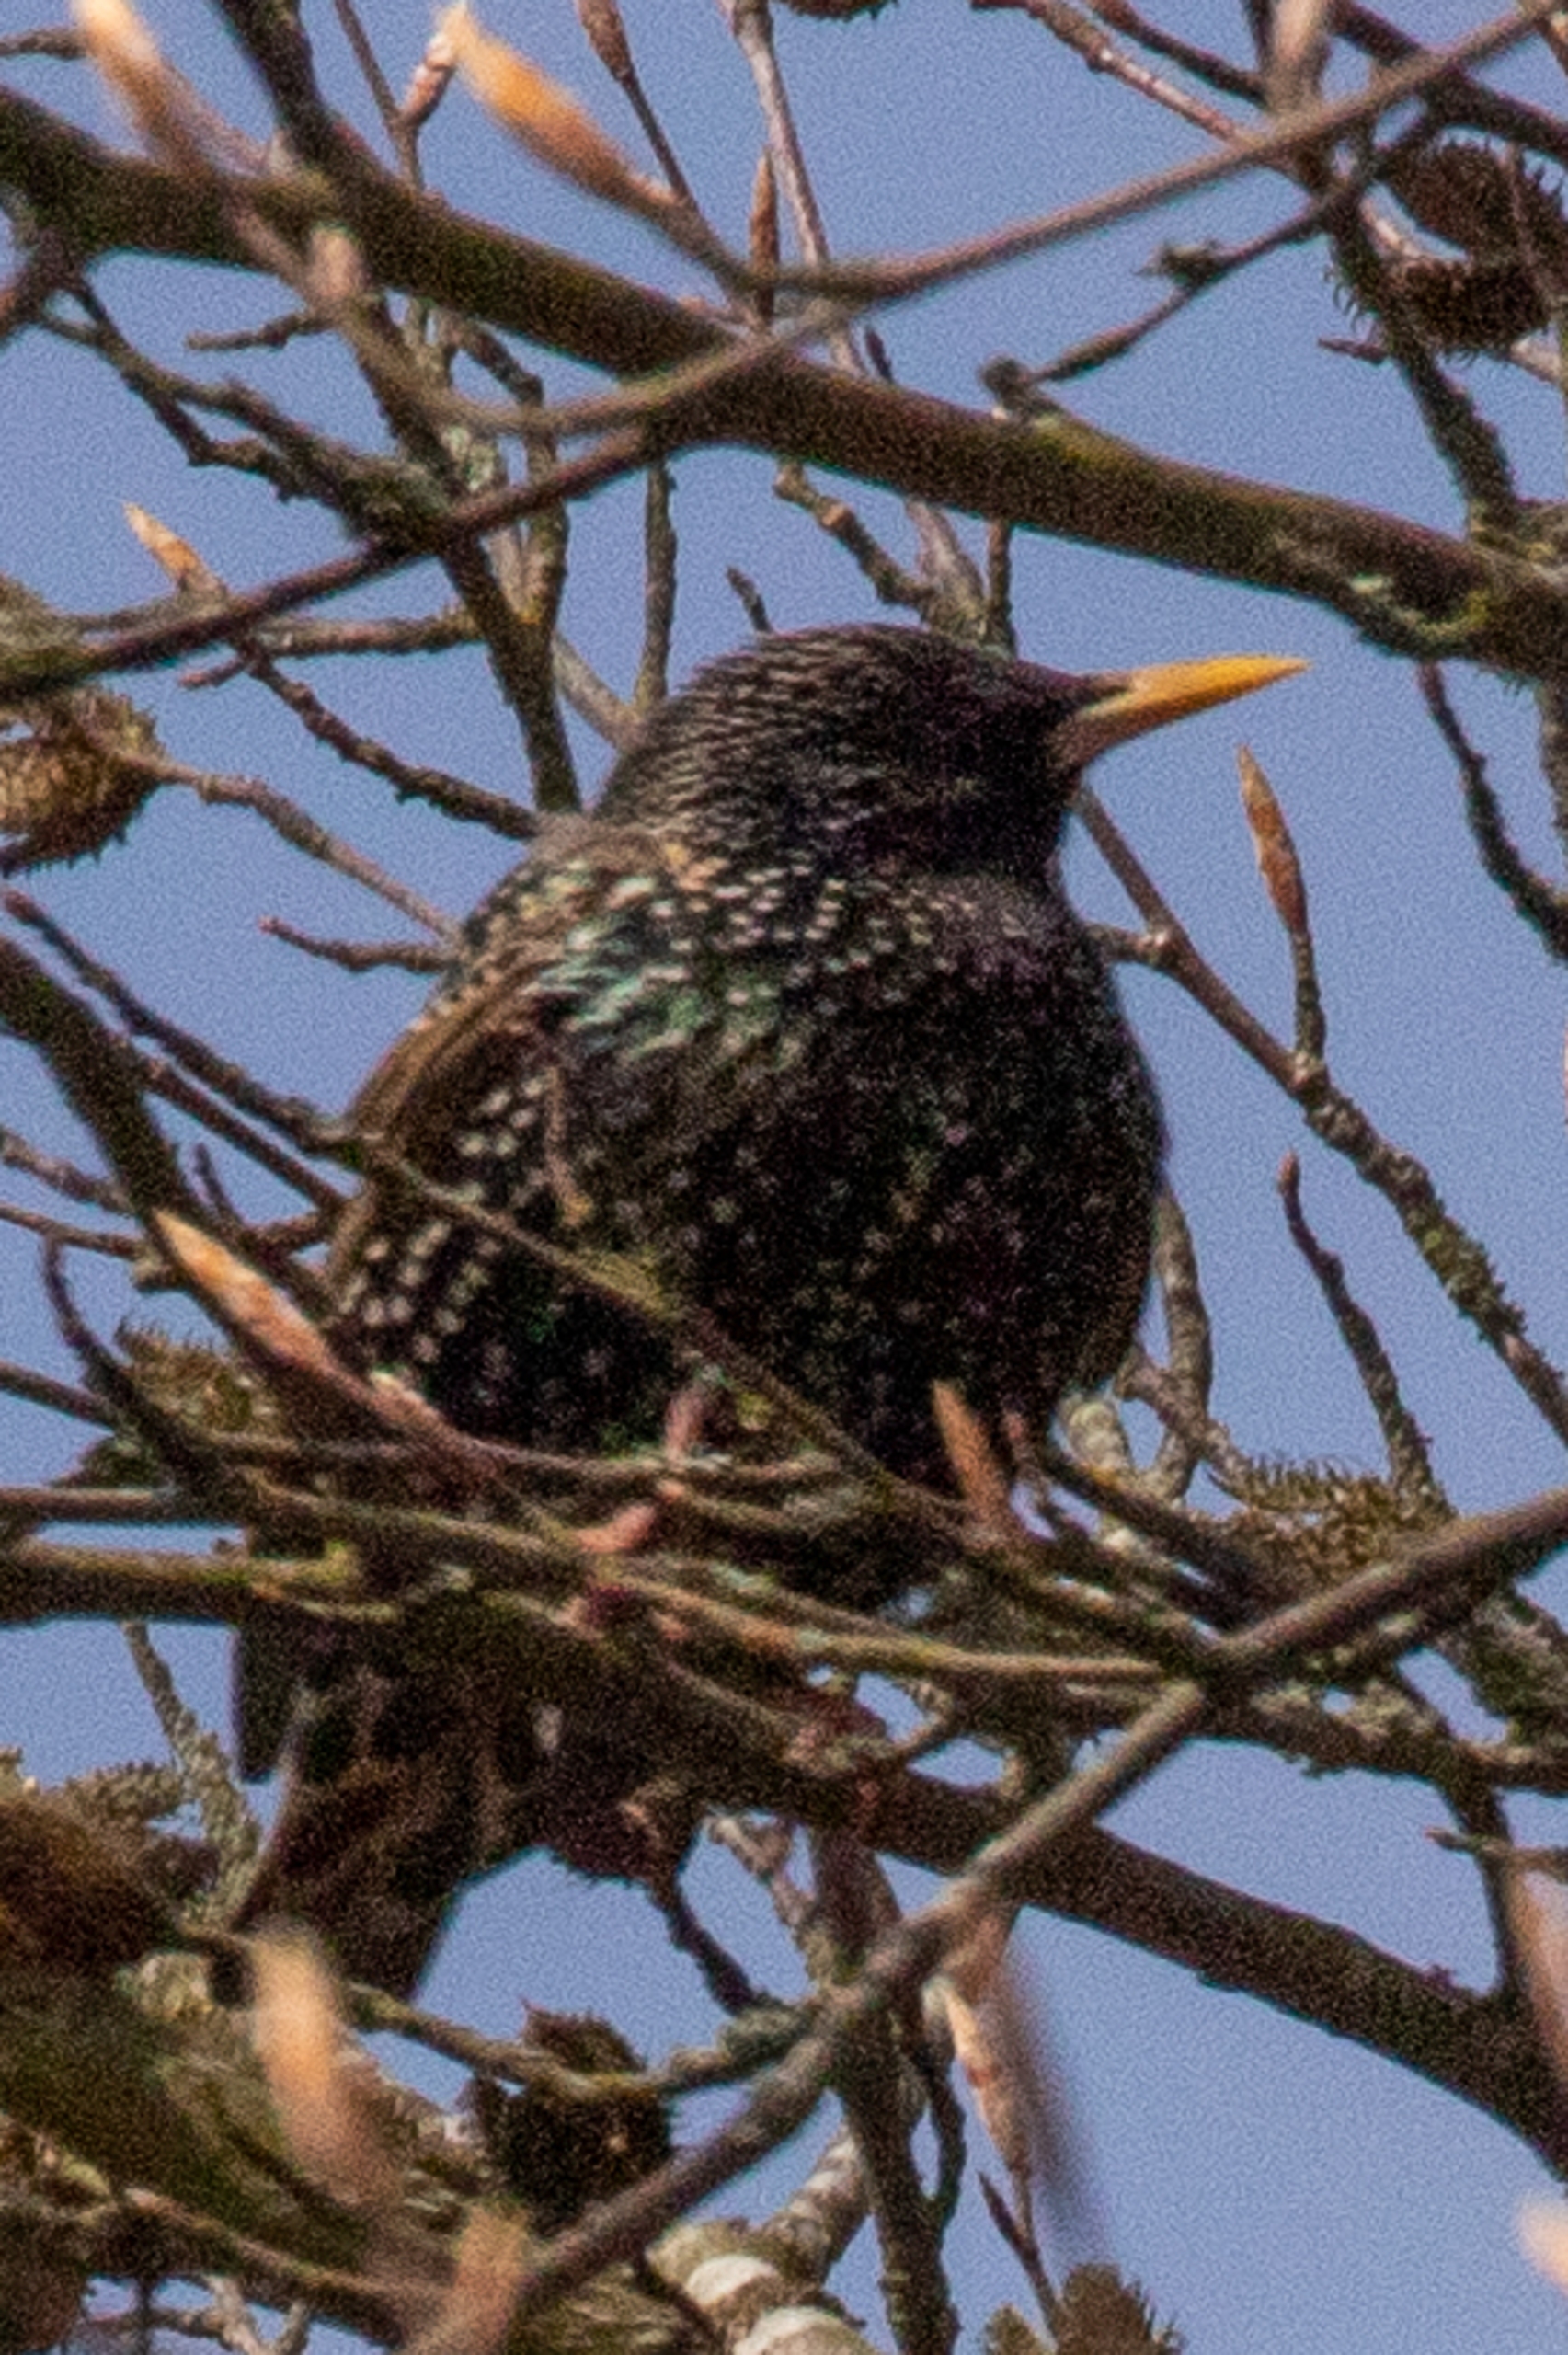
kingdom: Animalia
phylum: Chordata
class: Aves
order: Passeriformes
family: Sturnidae
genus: Sturnus
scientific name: Sturnus vulgaris
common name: Stær
